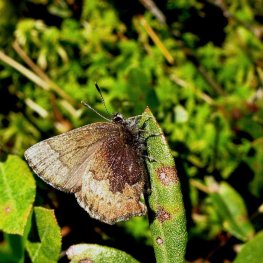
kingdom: Animalia
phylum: Arthropoda
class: Insecta
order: Lepidoptera
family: Lycaenidae
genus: Incisalia
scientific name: Incisalia irioides
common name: Brown Elfin
